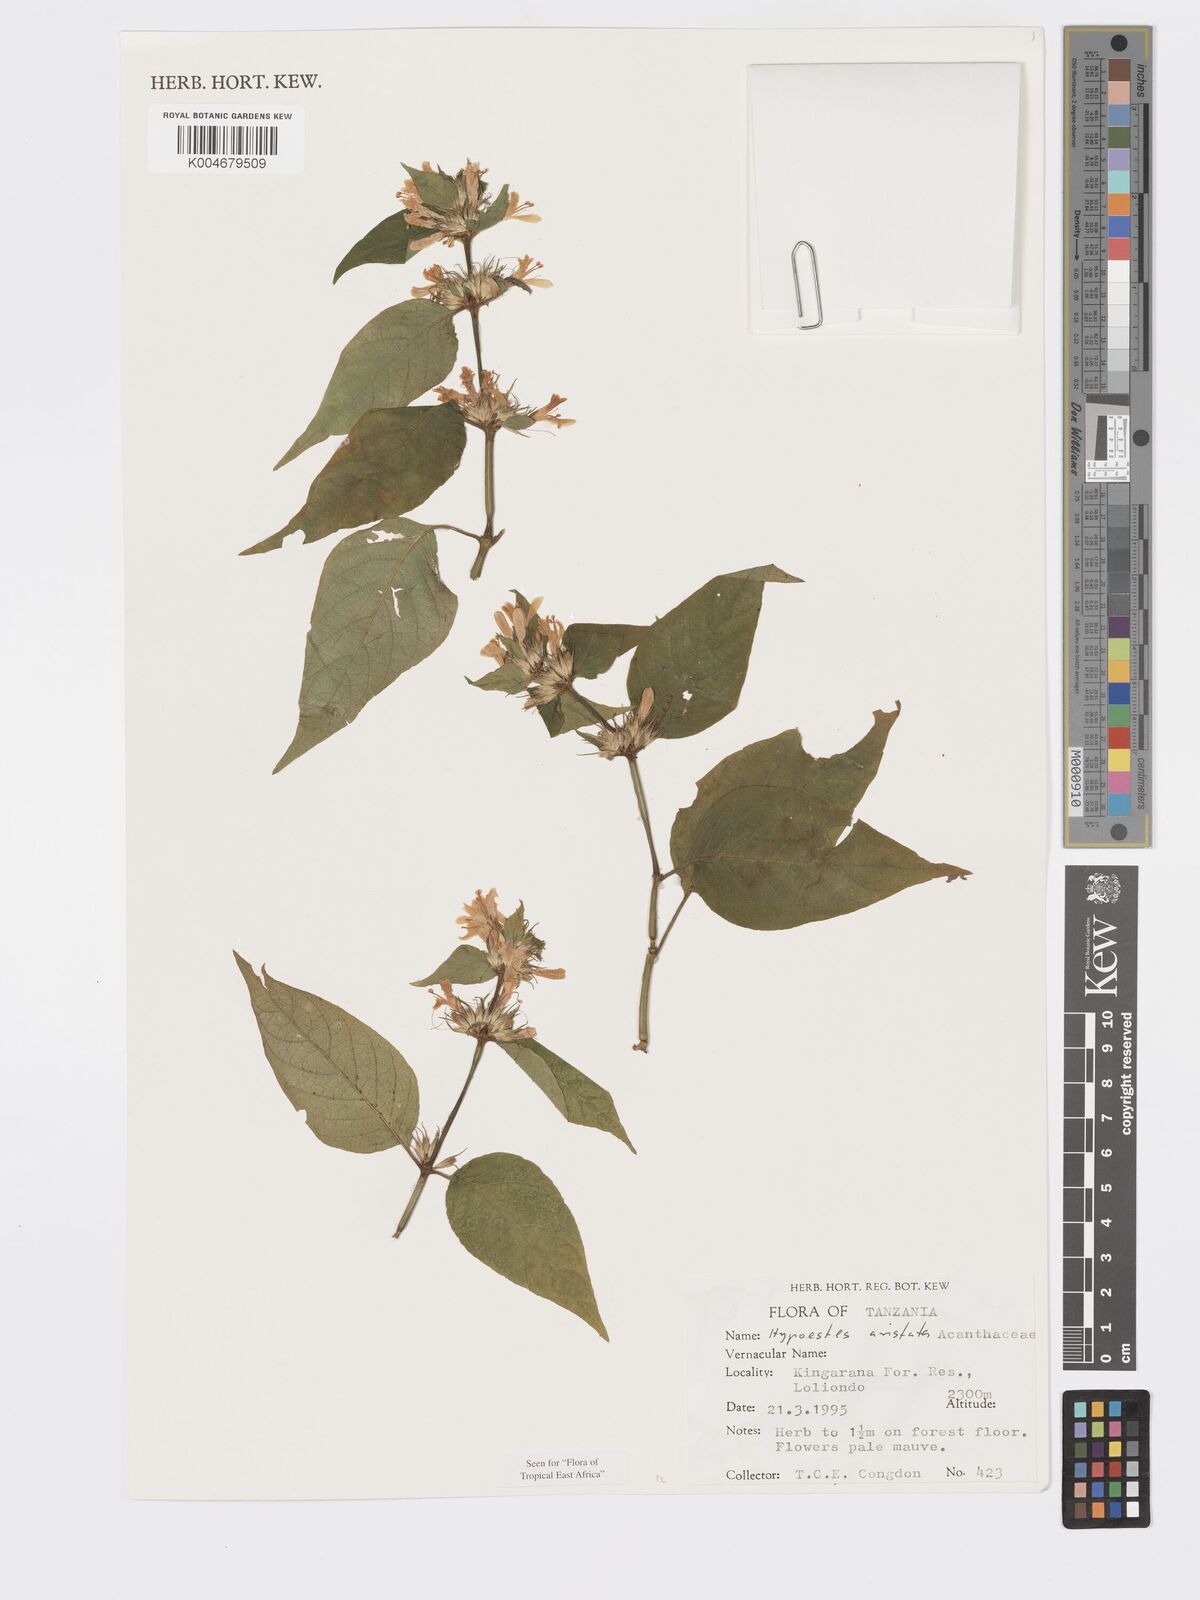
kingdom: Plantae
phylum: Tracheophyta
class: Magnoliopsida
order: Lamiales
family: Acanthaceae
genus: Hypoestes
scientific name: Hypoestes aristata
